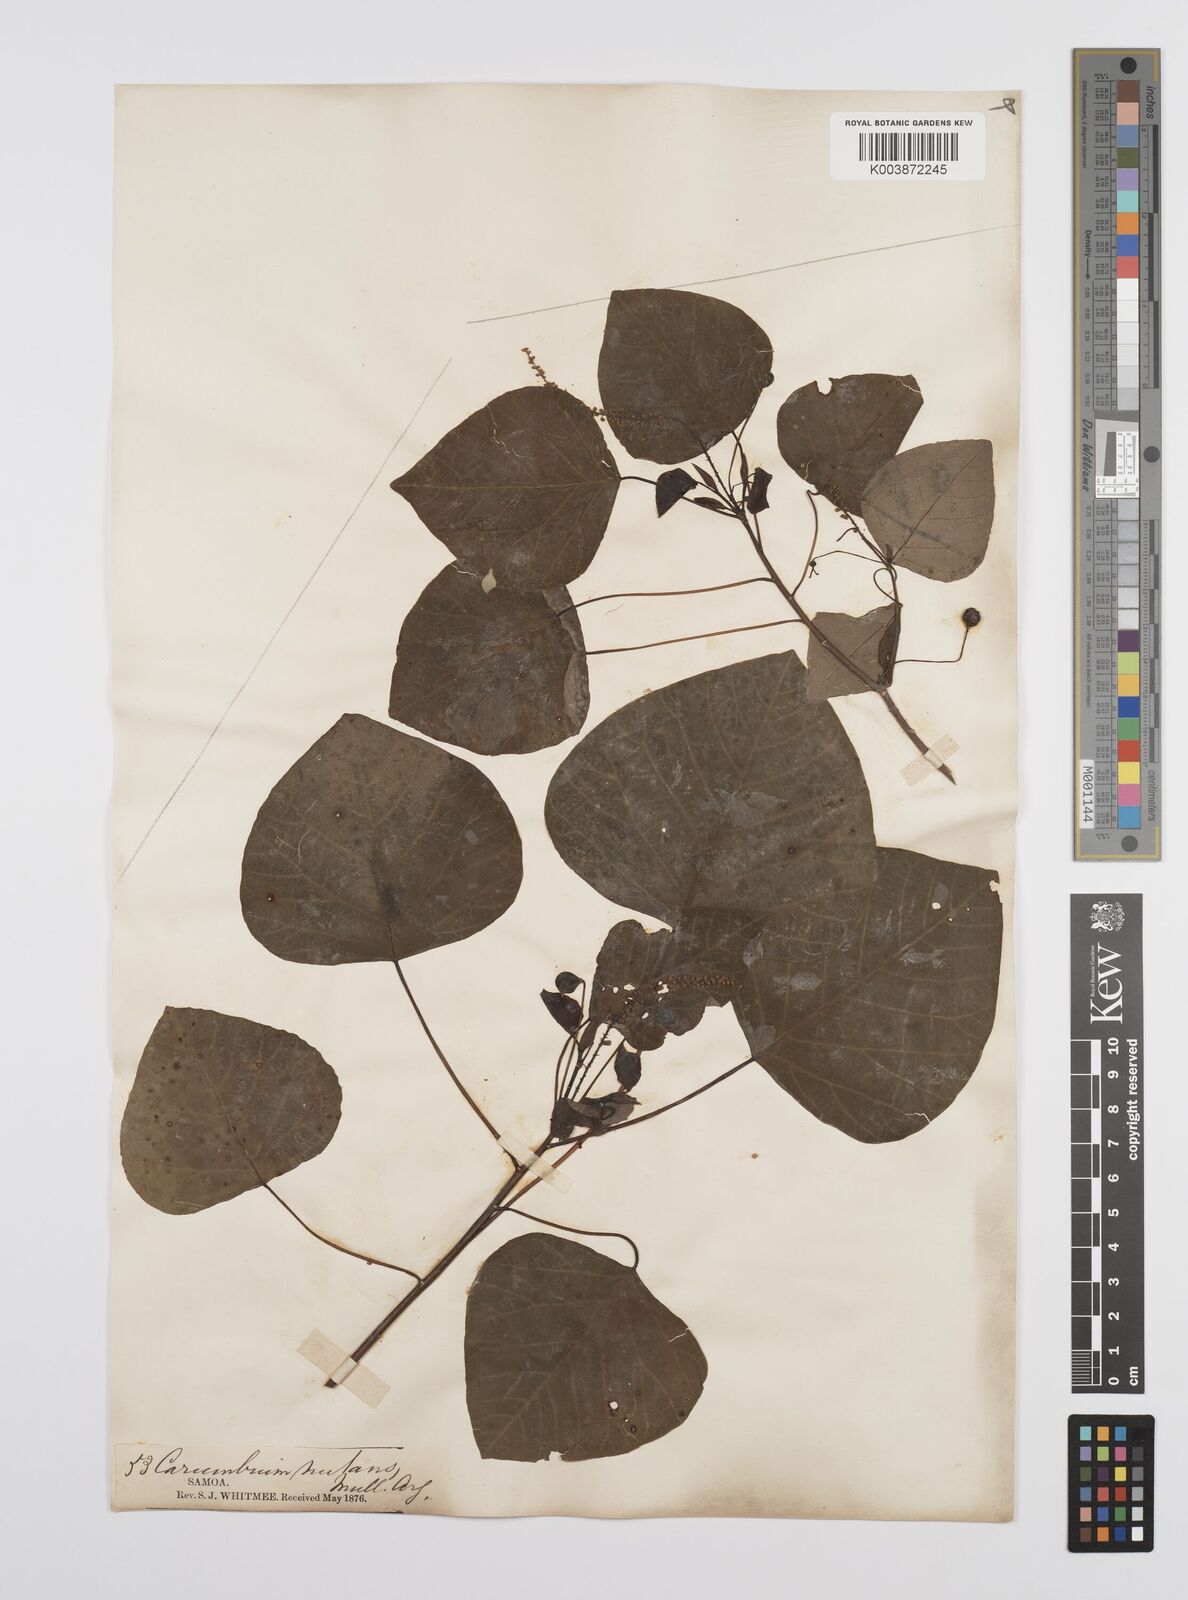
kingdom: Plantae
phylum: Tracheophyta
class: Magnoliopsida
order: Malpighiales
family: Euphorbiaceae
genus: Homalanthus
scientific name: Homalanthus nutans
